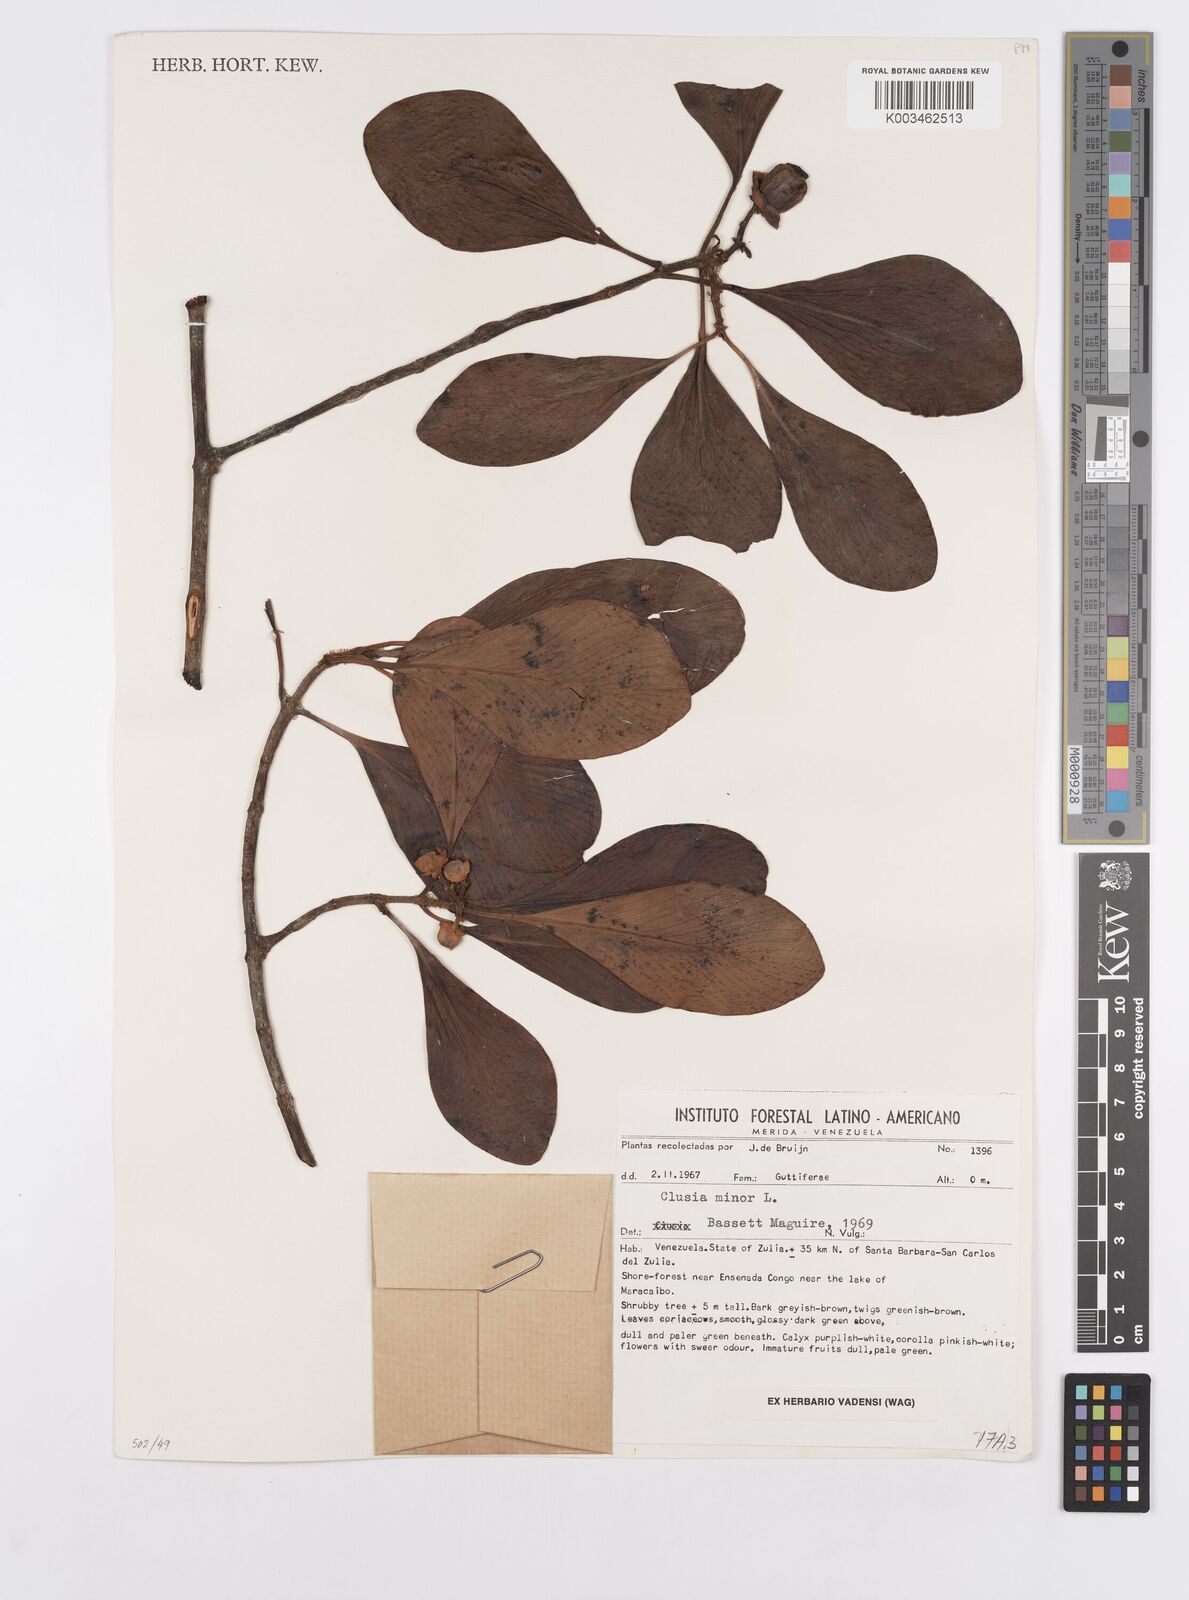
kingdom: Plantae
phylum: Tracheophyta
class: Magnoliopsida
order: Malpighiales
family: Clusiaceae
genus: Clusia
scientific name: Clusia minor
